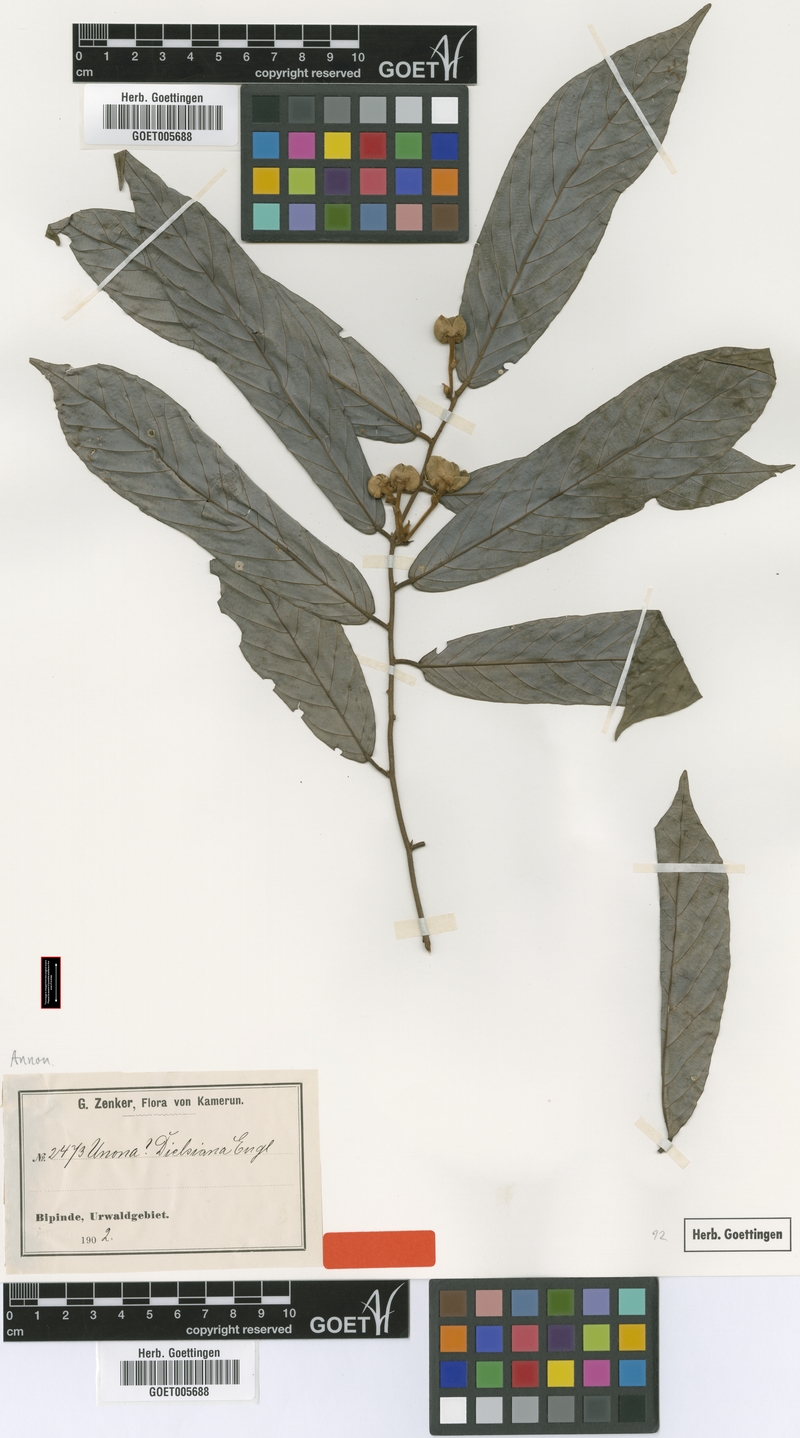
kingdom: Plantae
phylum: Tracheophyta
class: Magnoliopsida
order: Magnoliales
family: Annonaceae
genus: Friesodielsia
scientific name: Friesodielsia dielsiana
